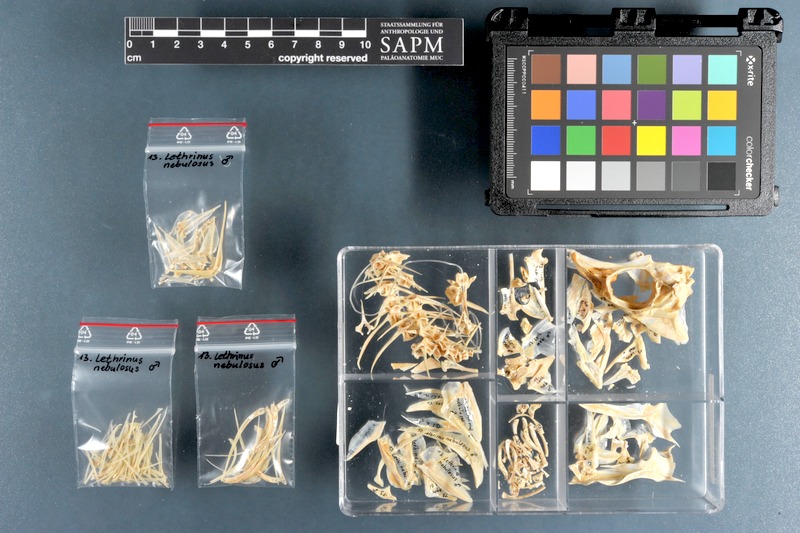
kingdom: Animalia
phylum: Chordata
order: Perciformes
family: Lethrinidae
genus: Lethrinus
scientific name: Lethrinus nebulosus
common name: Spangled emperor
